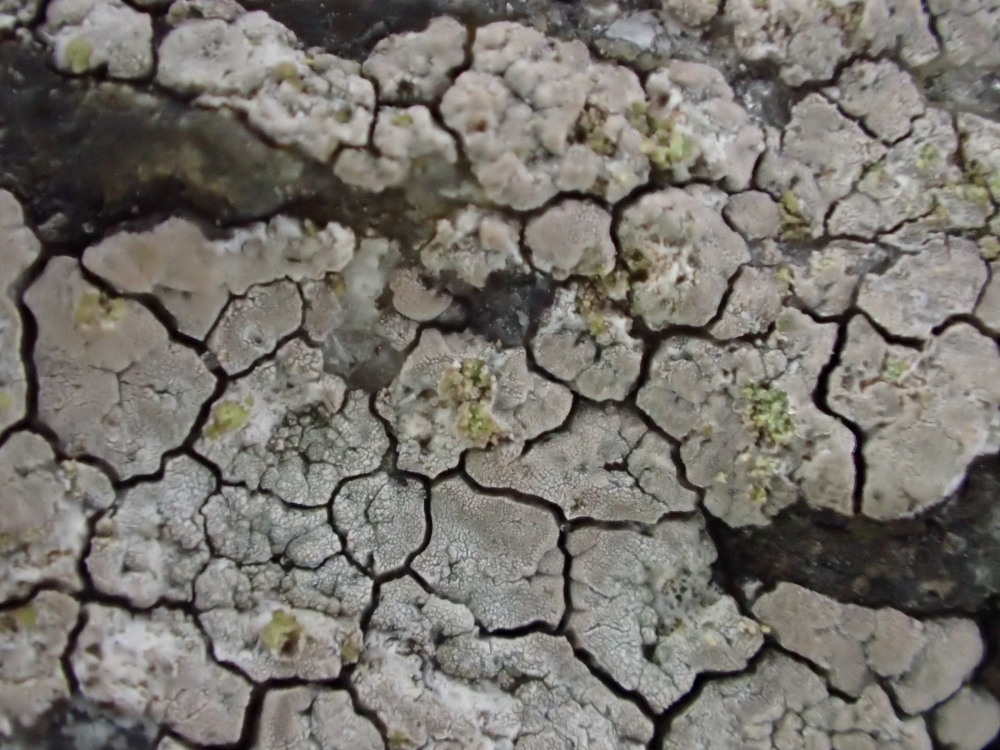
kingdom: Fungi
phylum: Ascomycota
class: Lecanoromycetes
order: Baeomycetales
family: Trapeliaceae
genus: Kleopowiella
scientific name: Kleopowiella placodioides
